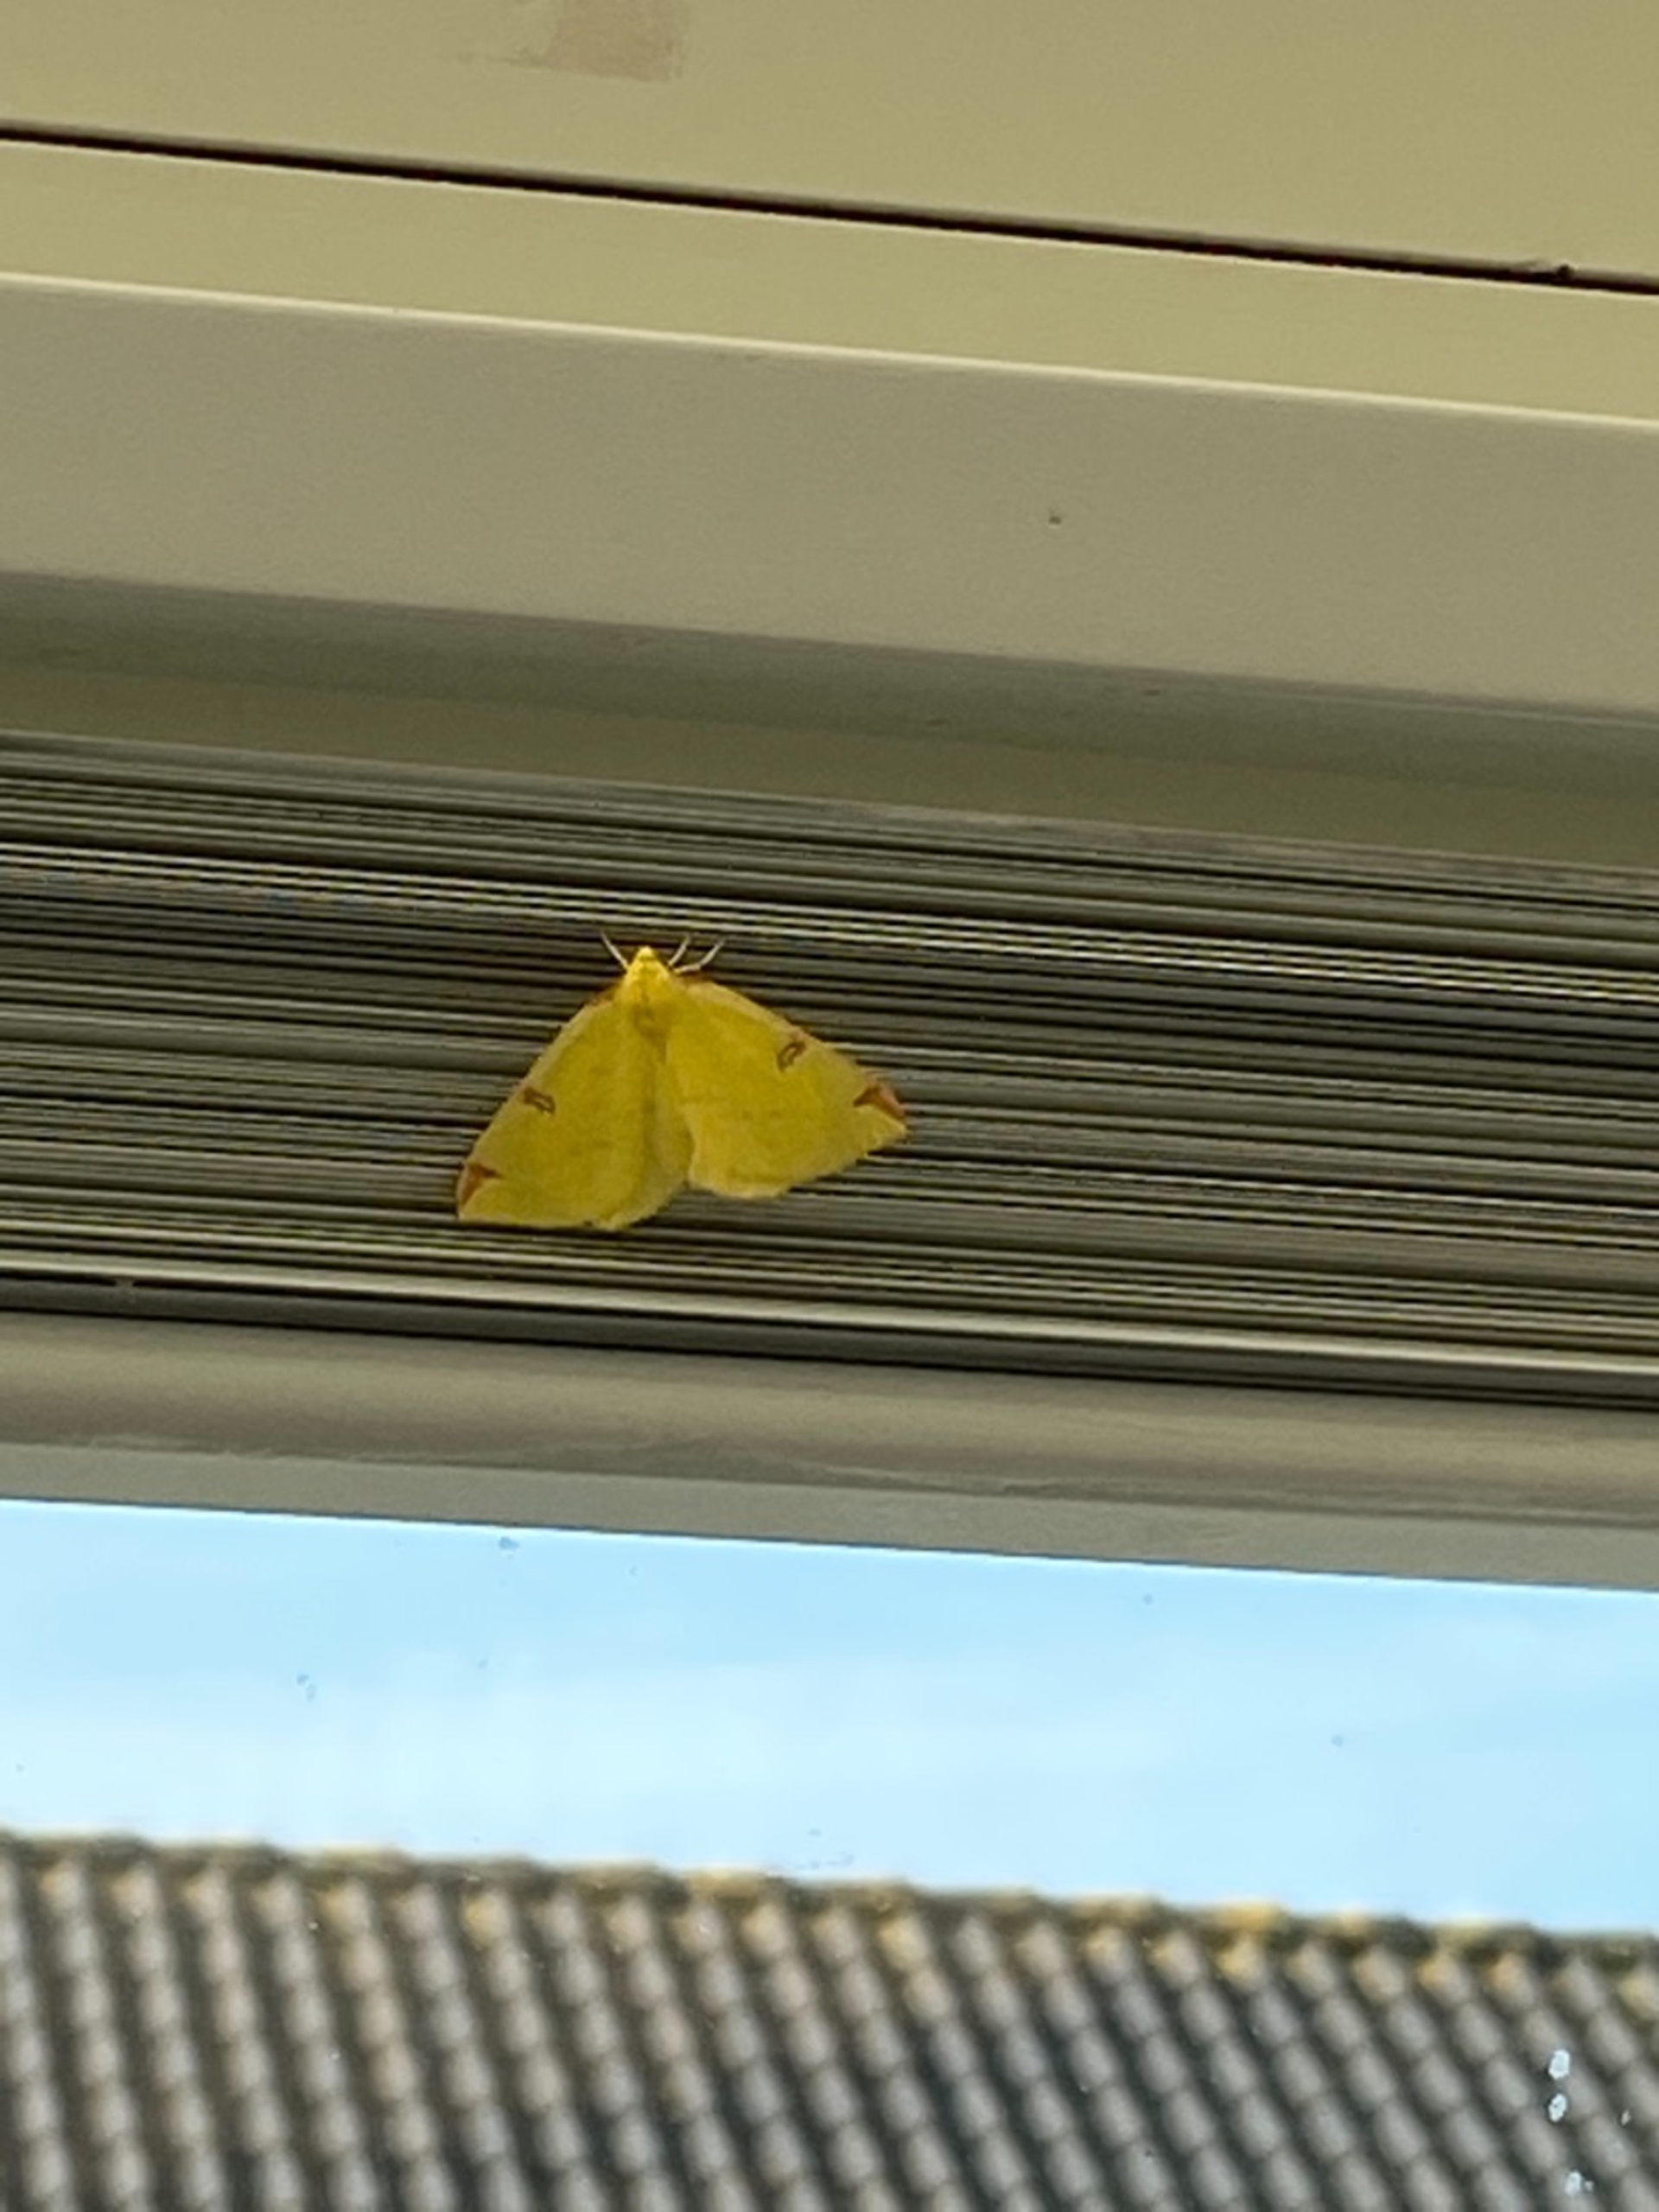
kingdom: Animalia
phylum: Arthropoda
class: Insecta
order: Lepidoptera
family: Geometridae
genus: Opisthograptis
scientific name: Opisthograptis luteolata
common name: Citronmåler
